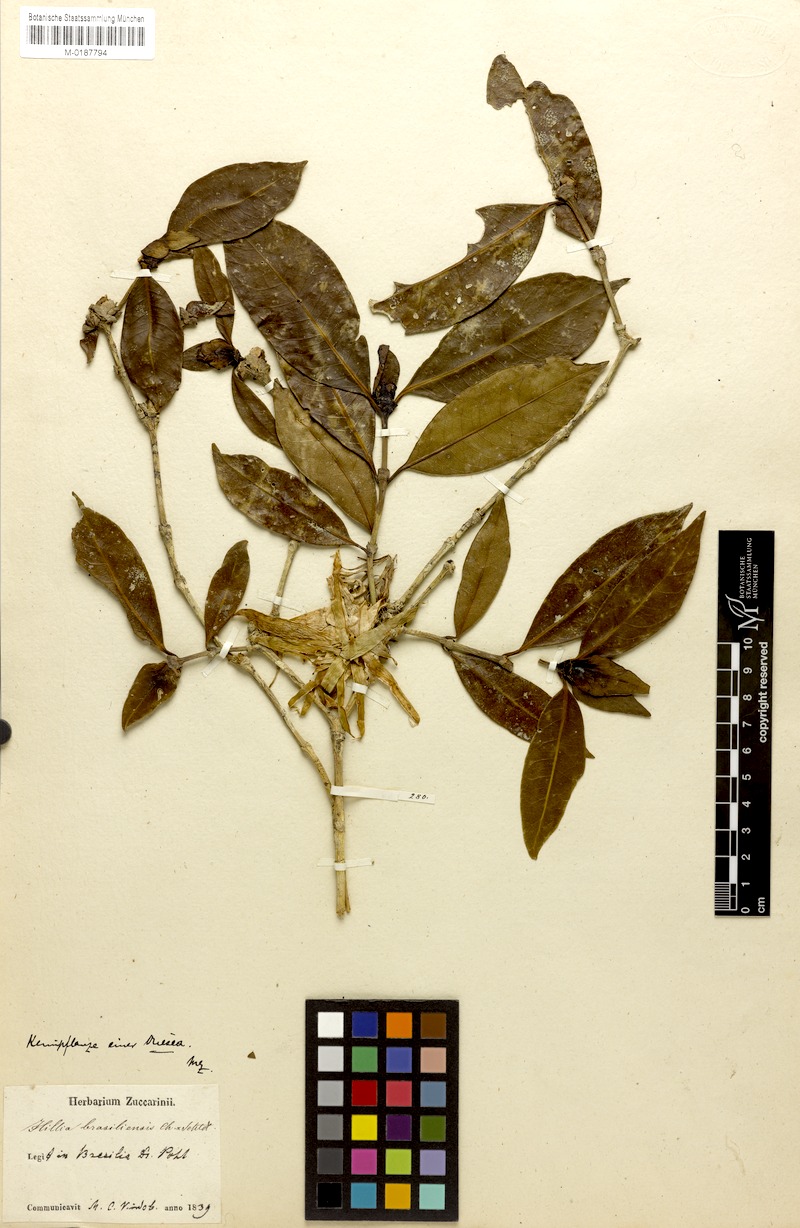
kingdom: Plantae
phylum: Tracheophyta
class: Magnoliopsida
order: Gentianales
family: Rubiaceae
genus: Hillia
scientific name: Hillia parasitica
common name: Morning star
